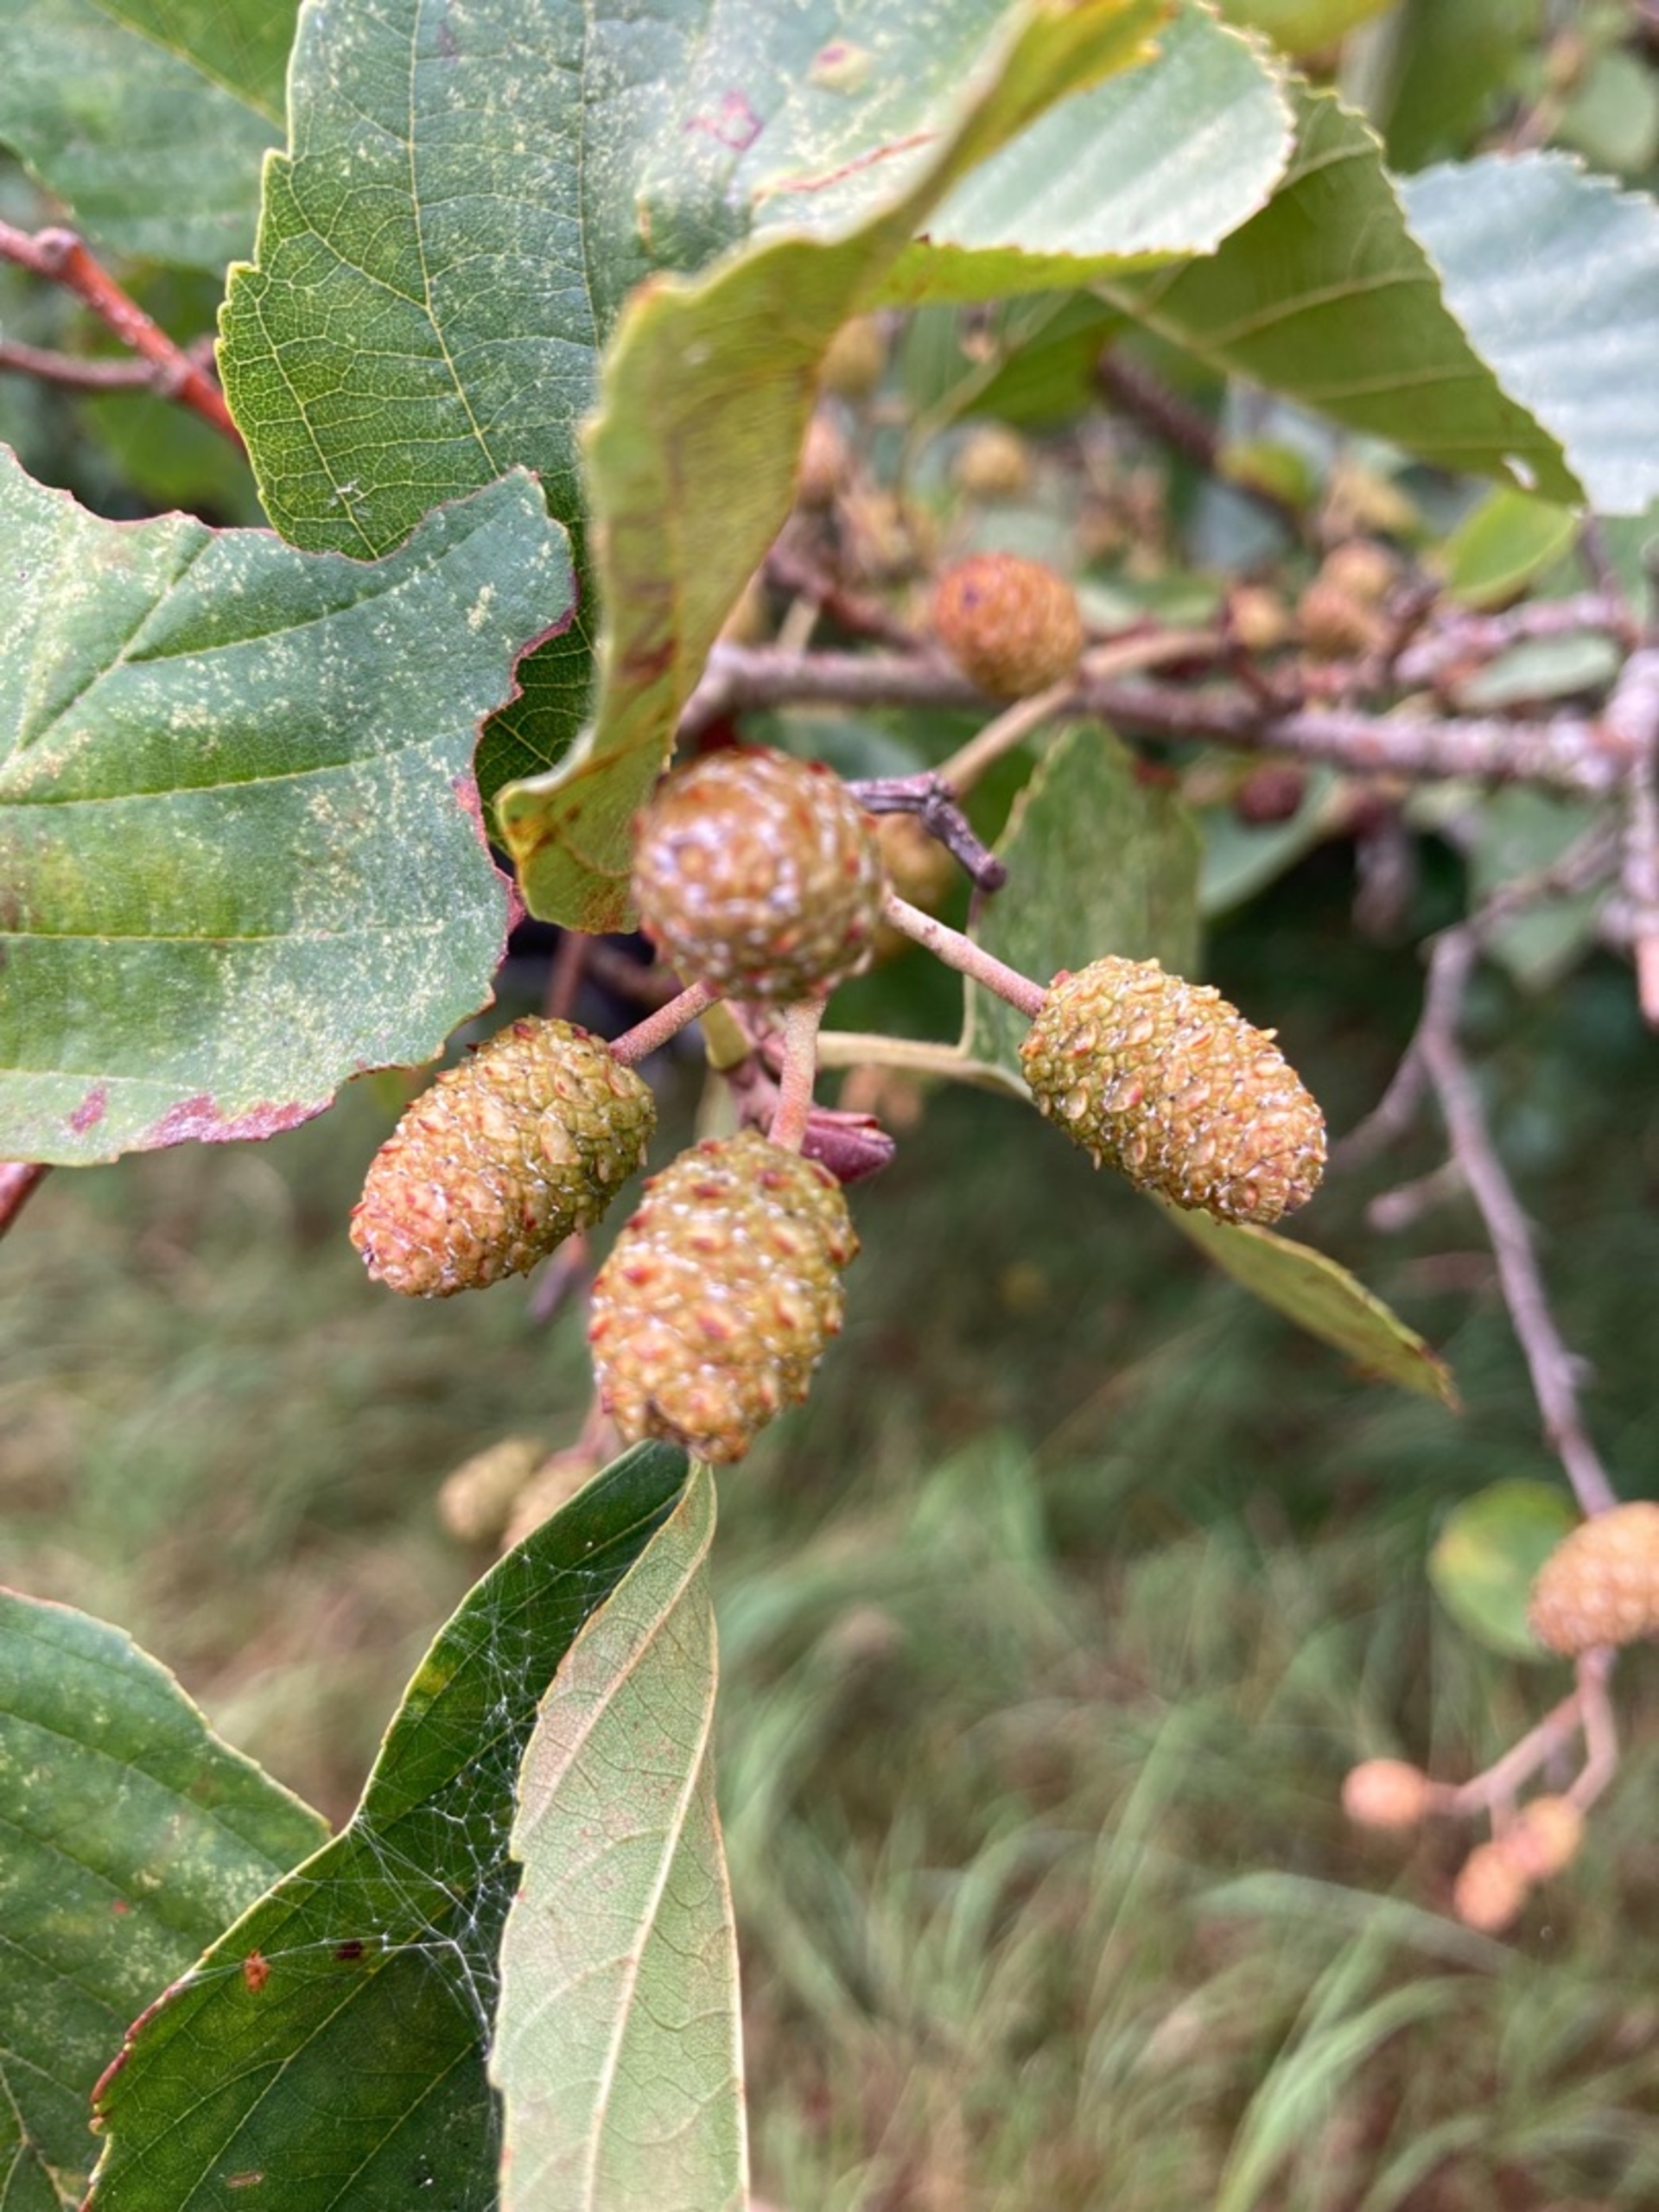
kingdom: Plantae
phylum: Tracheophyta
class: Magnoliopsida
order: Fagales
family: Betulaceae
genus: Alnus
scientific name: Alnus glutinosa
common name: Rød-el
